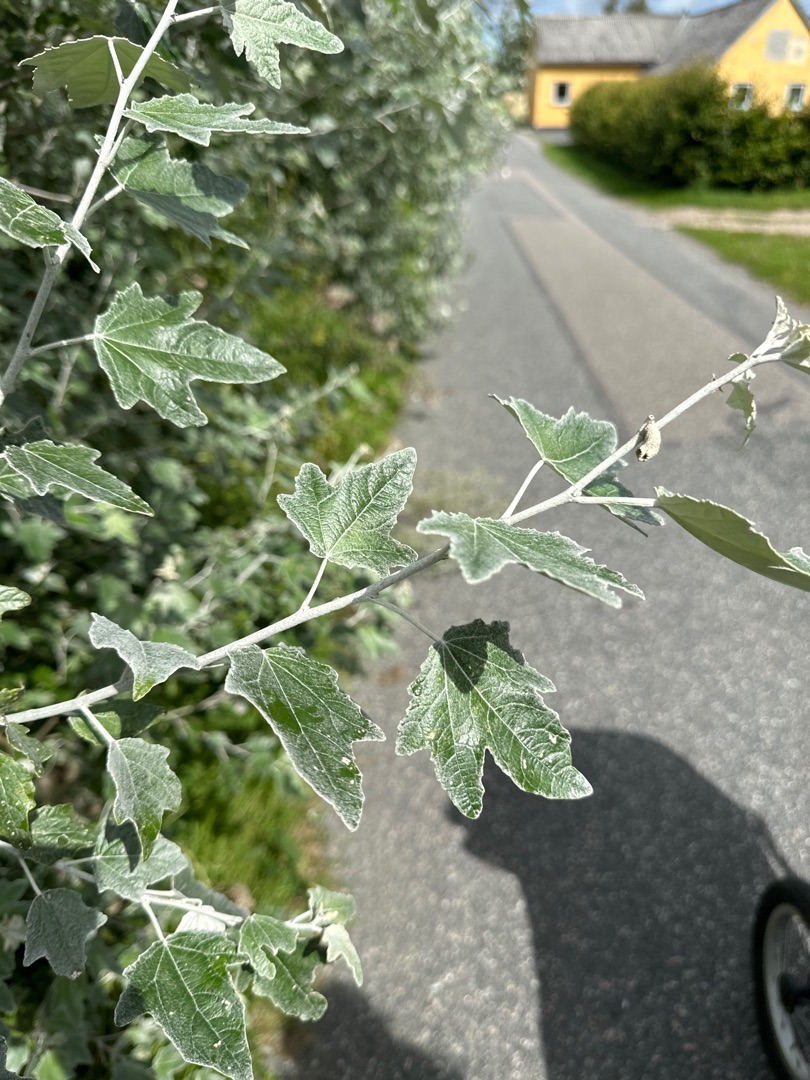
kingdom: Plantae
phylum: Tracheophyta
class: Magnoliopsida
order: Malpighiales
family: Salicaceae
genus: Populus
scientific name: Populus alba
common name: Sølv-poppel
